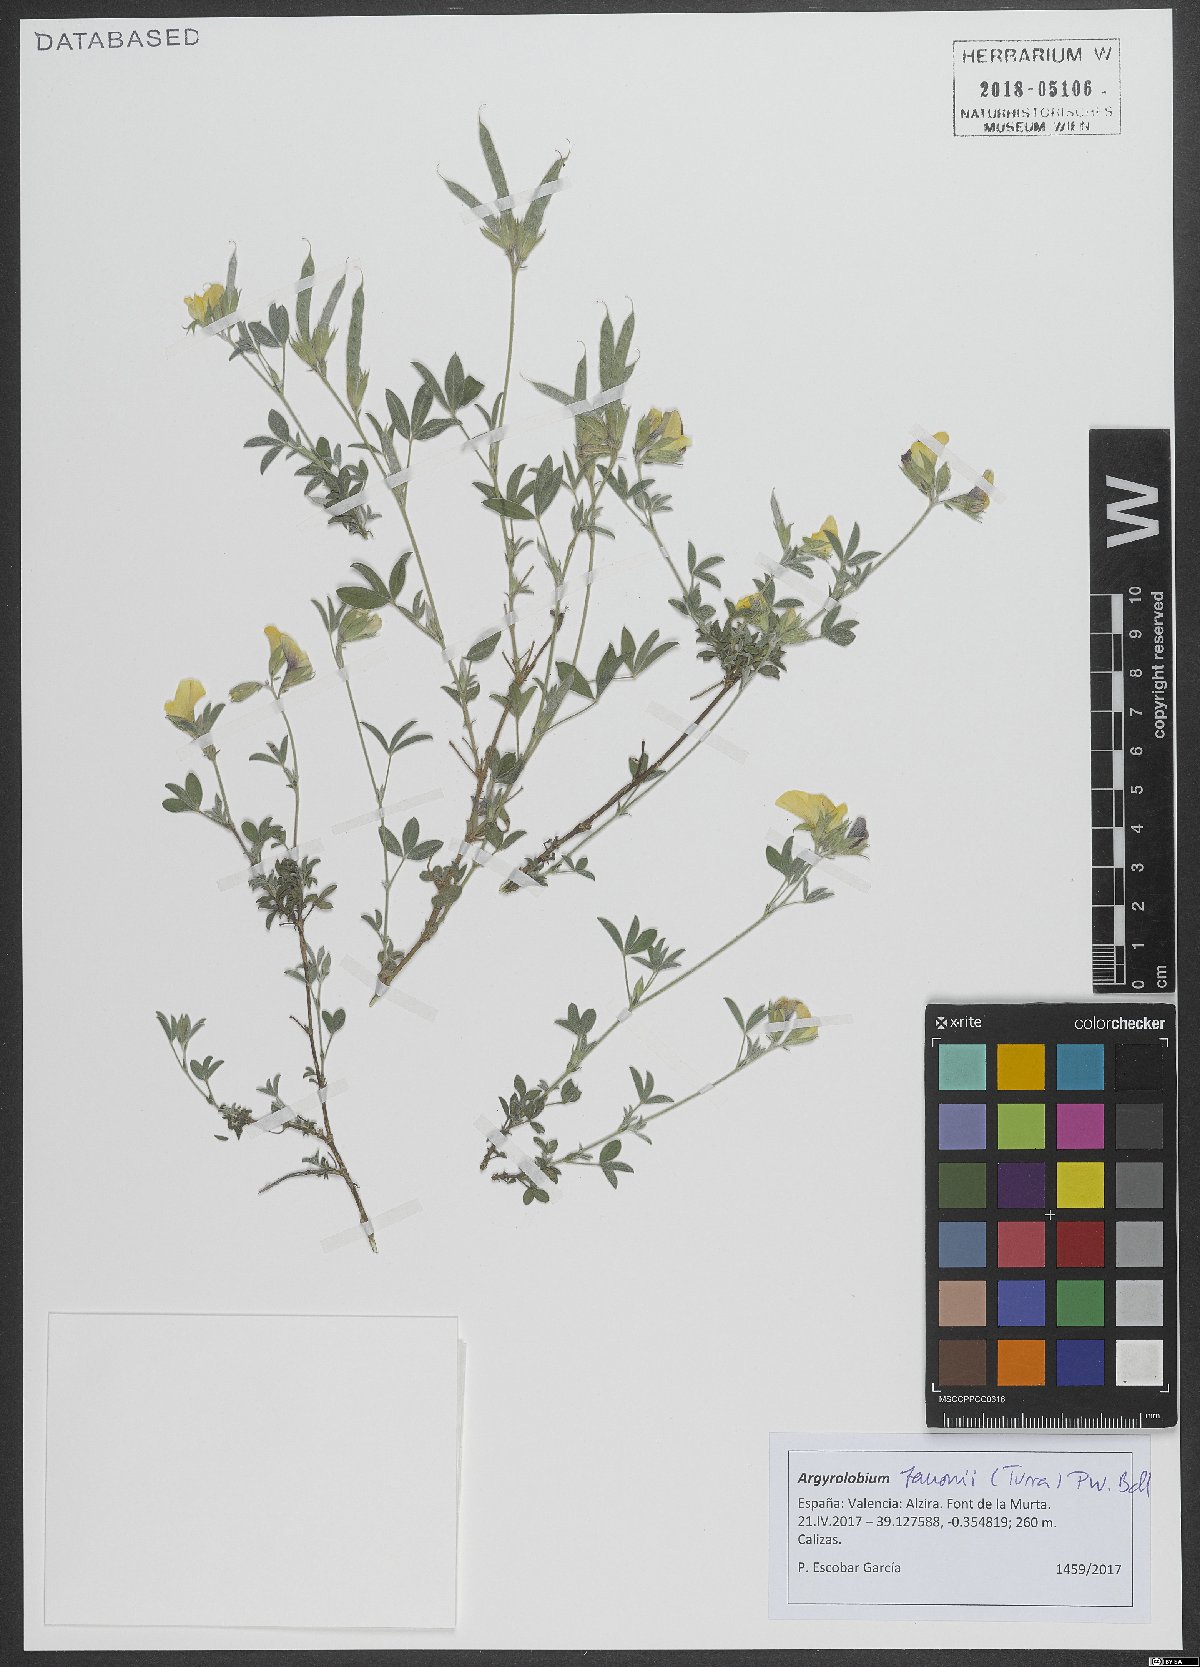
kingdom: Plantae
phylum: Tracheophyta
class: Magnoliopsida
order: Fabales
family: Fabaceae
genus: Argyrolobium
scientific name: Argyrolobium zanonii
